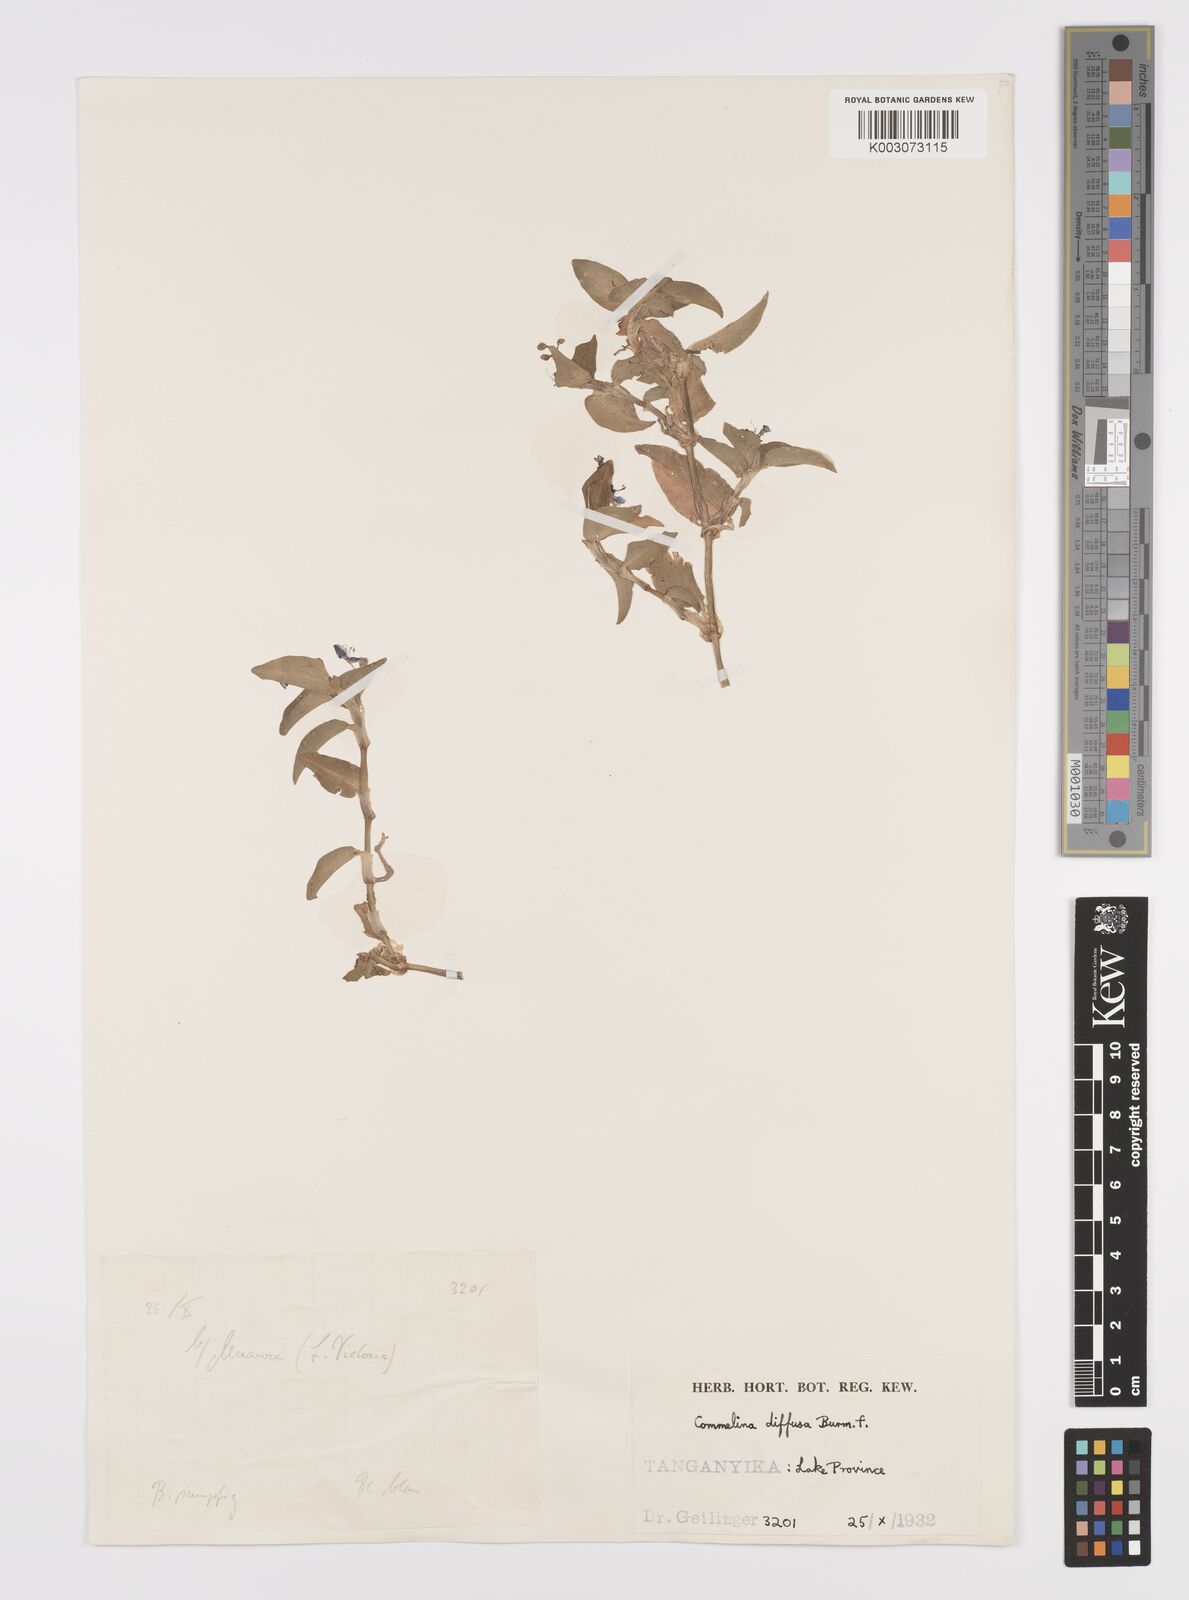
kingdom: Plantae
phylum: Tracheophyta
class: Liliopsida
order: Commelinales
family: Commelinaceae
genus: Commelina
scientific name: Commelina diffusa
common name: Climbing dayflower
